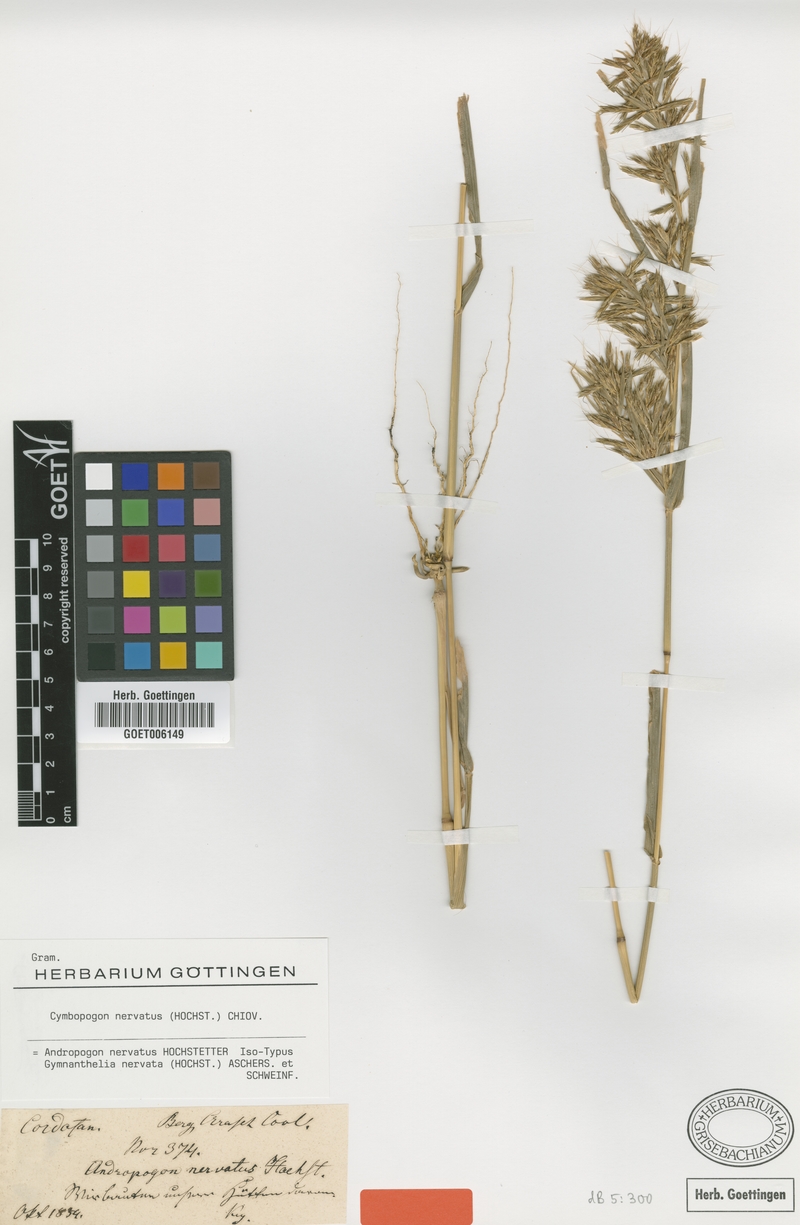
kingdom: Plantae
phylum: Tracheophyta
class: Liliopsida
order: Poales
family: Poaceae
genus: Cymbopogon
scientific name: Cymbopogon nervatus
